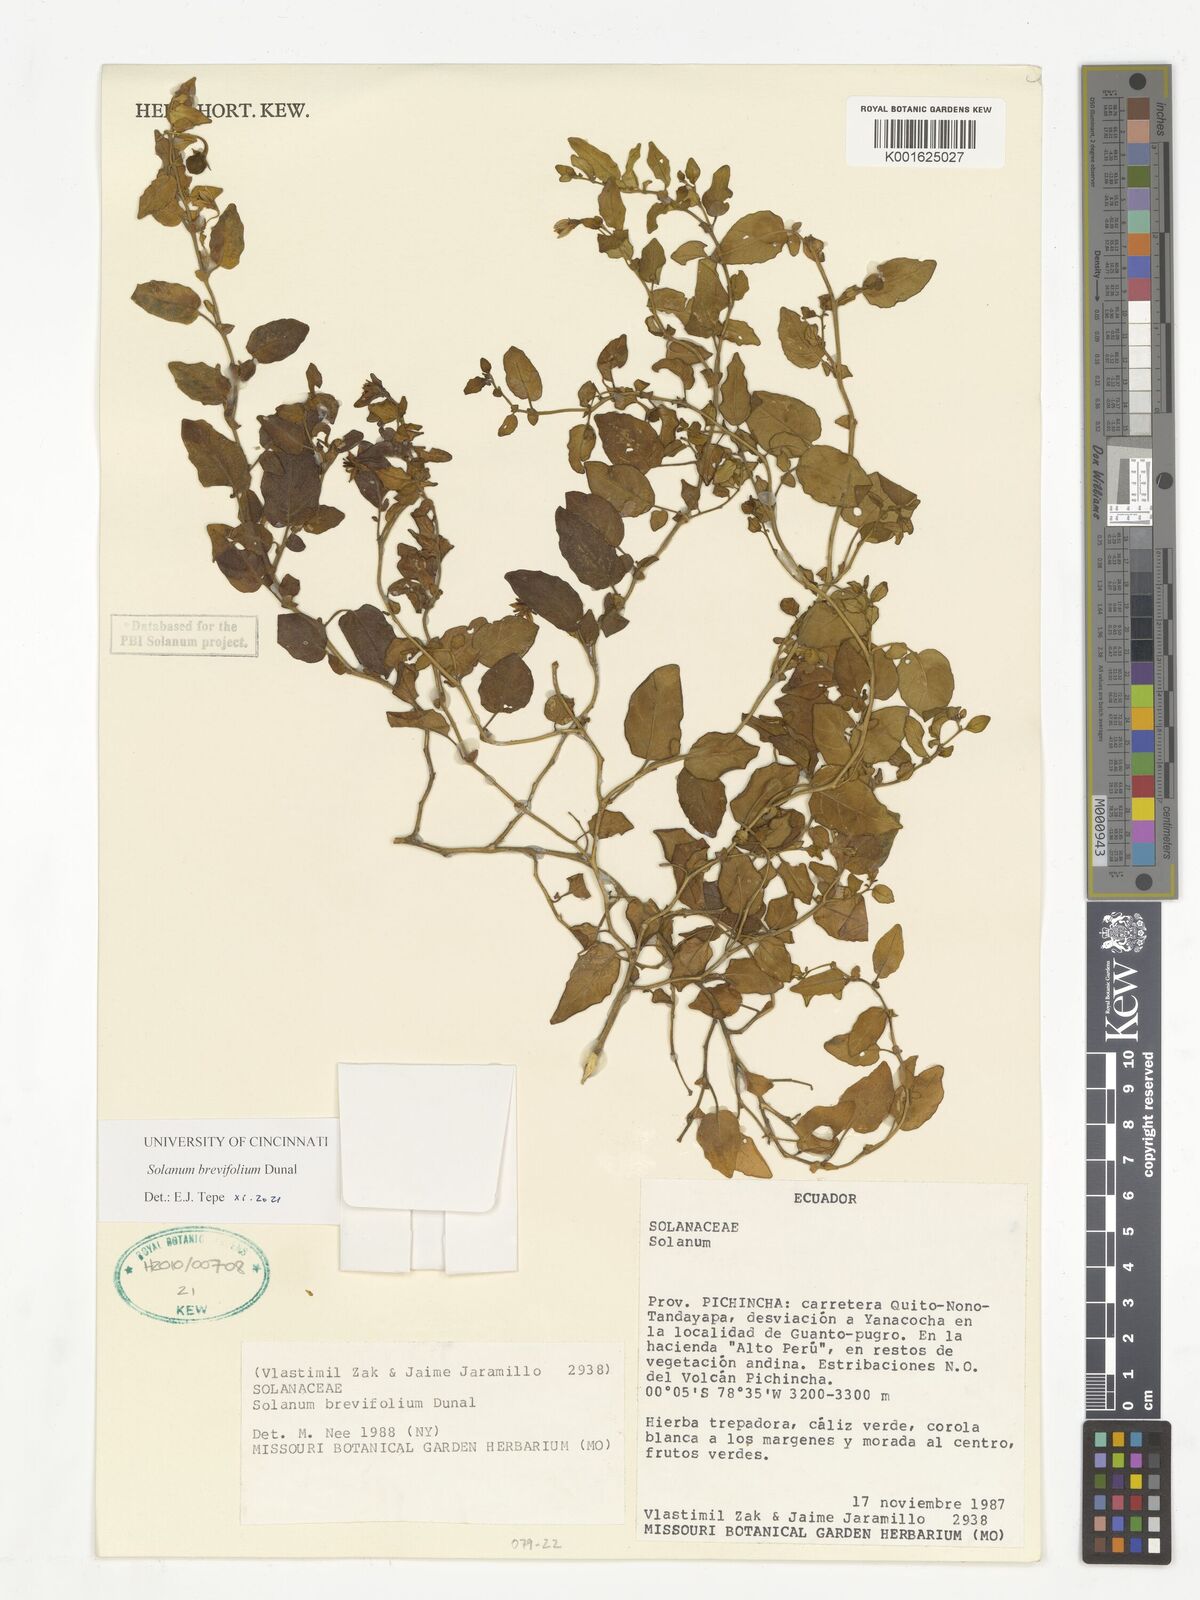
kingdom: Plantae
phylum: Tracheophyta
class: Magnoliopsida
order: Solanales
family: Solanaceae
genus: Solanum
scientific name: Solanum brevifolium
